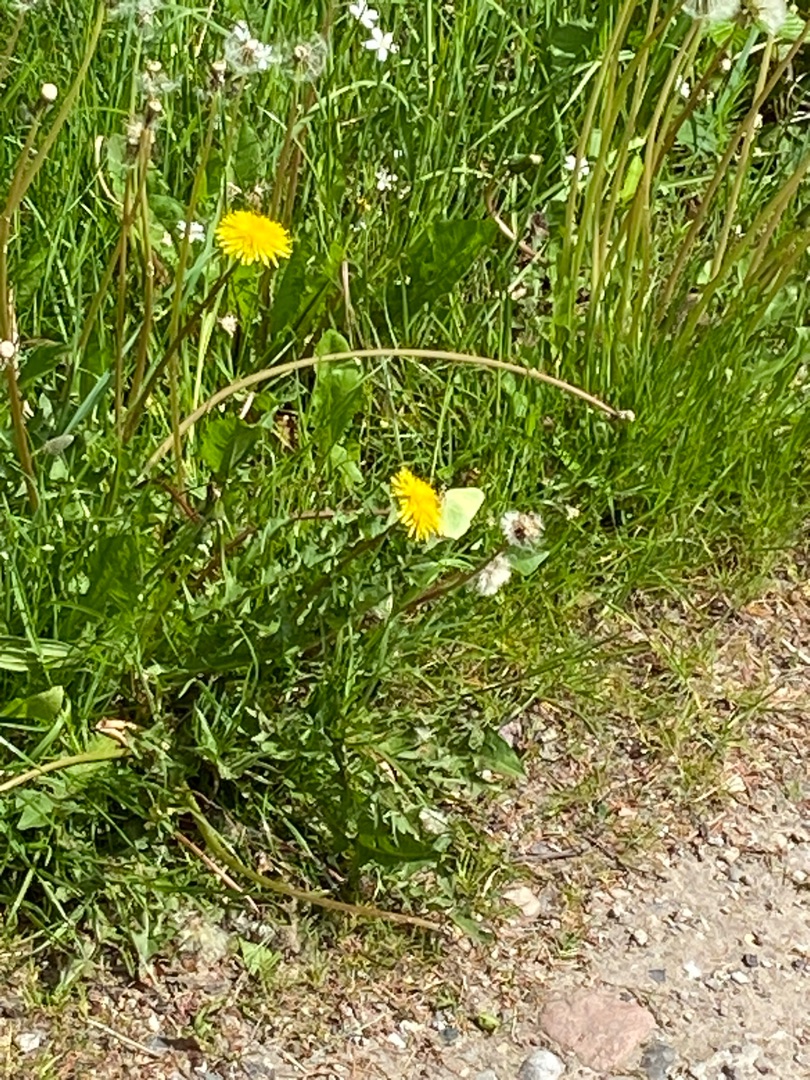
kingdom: Animalia
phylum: Arthropoda
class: Insecta
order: Lepidoptera
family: Pieridae
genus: Gonepteryx
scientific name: Gonepteryx rhamni
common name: Citronsommerfugl
